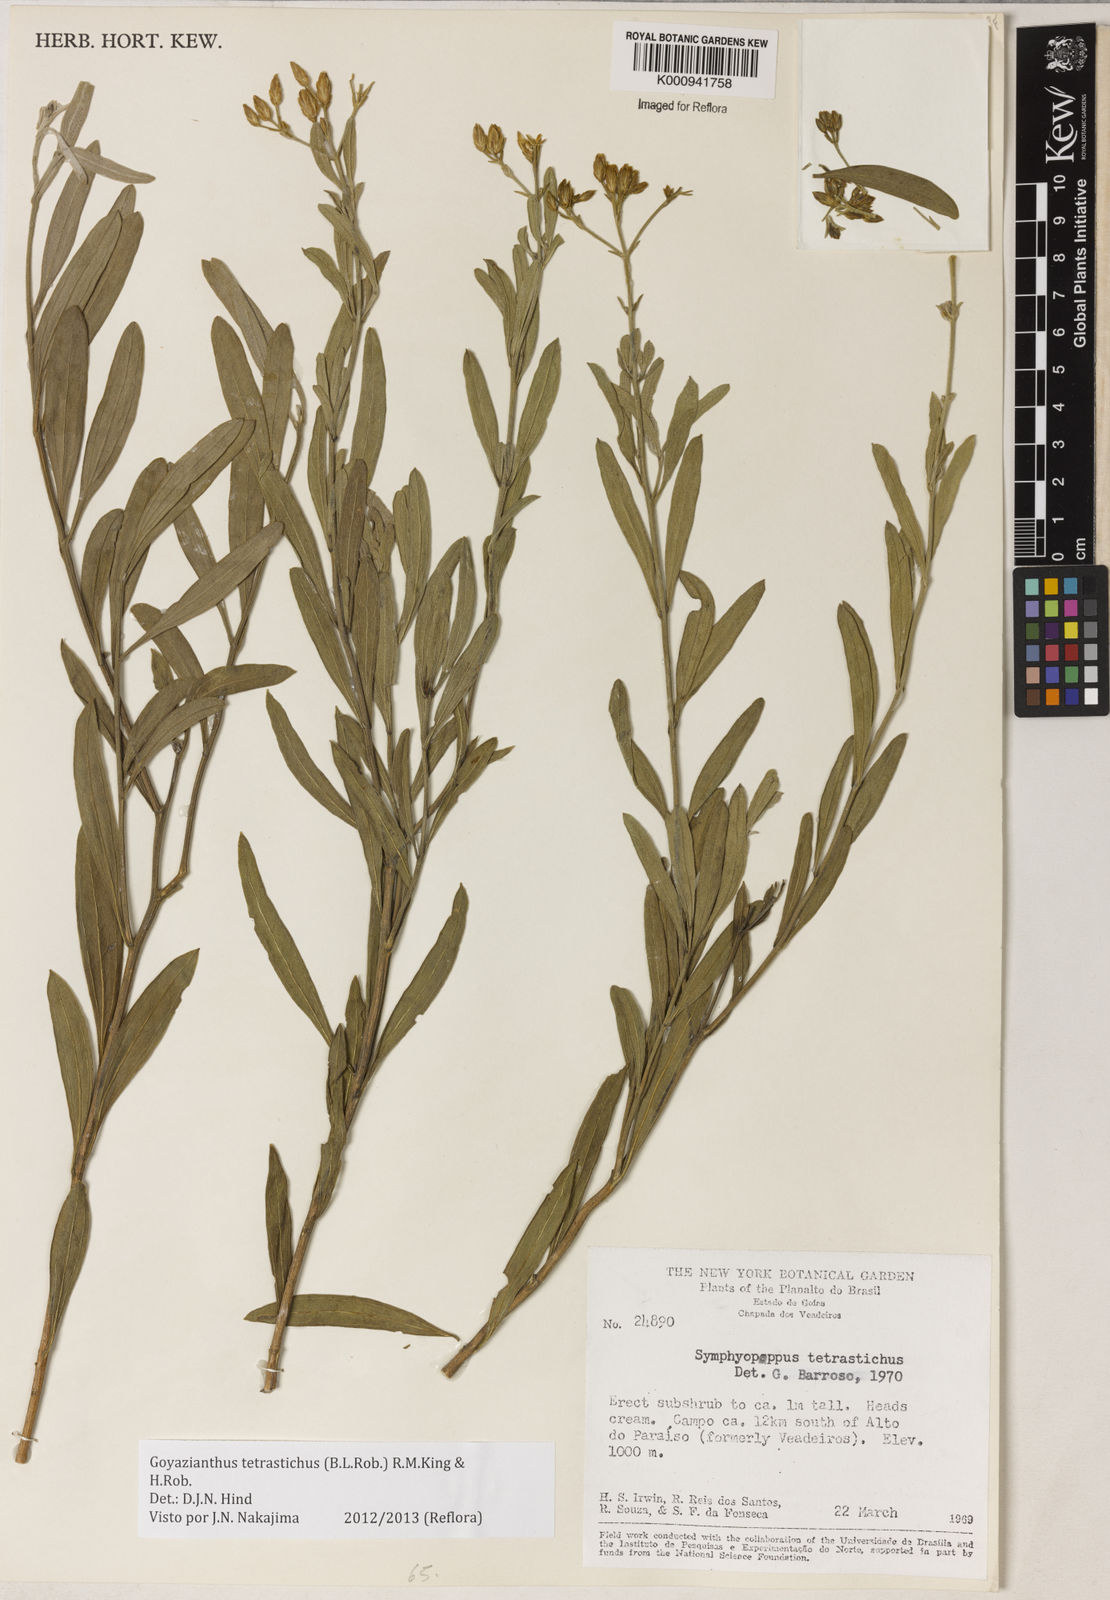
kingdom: Plantae
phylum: Tracheophyta
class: Magnoliopsida
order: Asterales
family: Asteraceae
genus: Goyazianthus
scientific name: Goyazianthus tetrastichus
